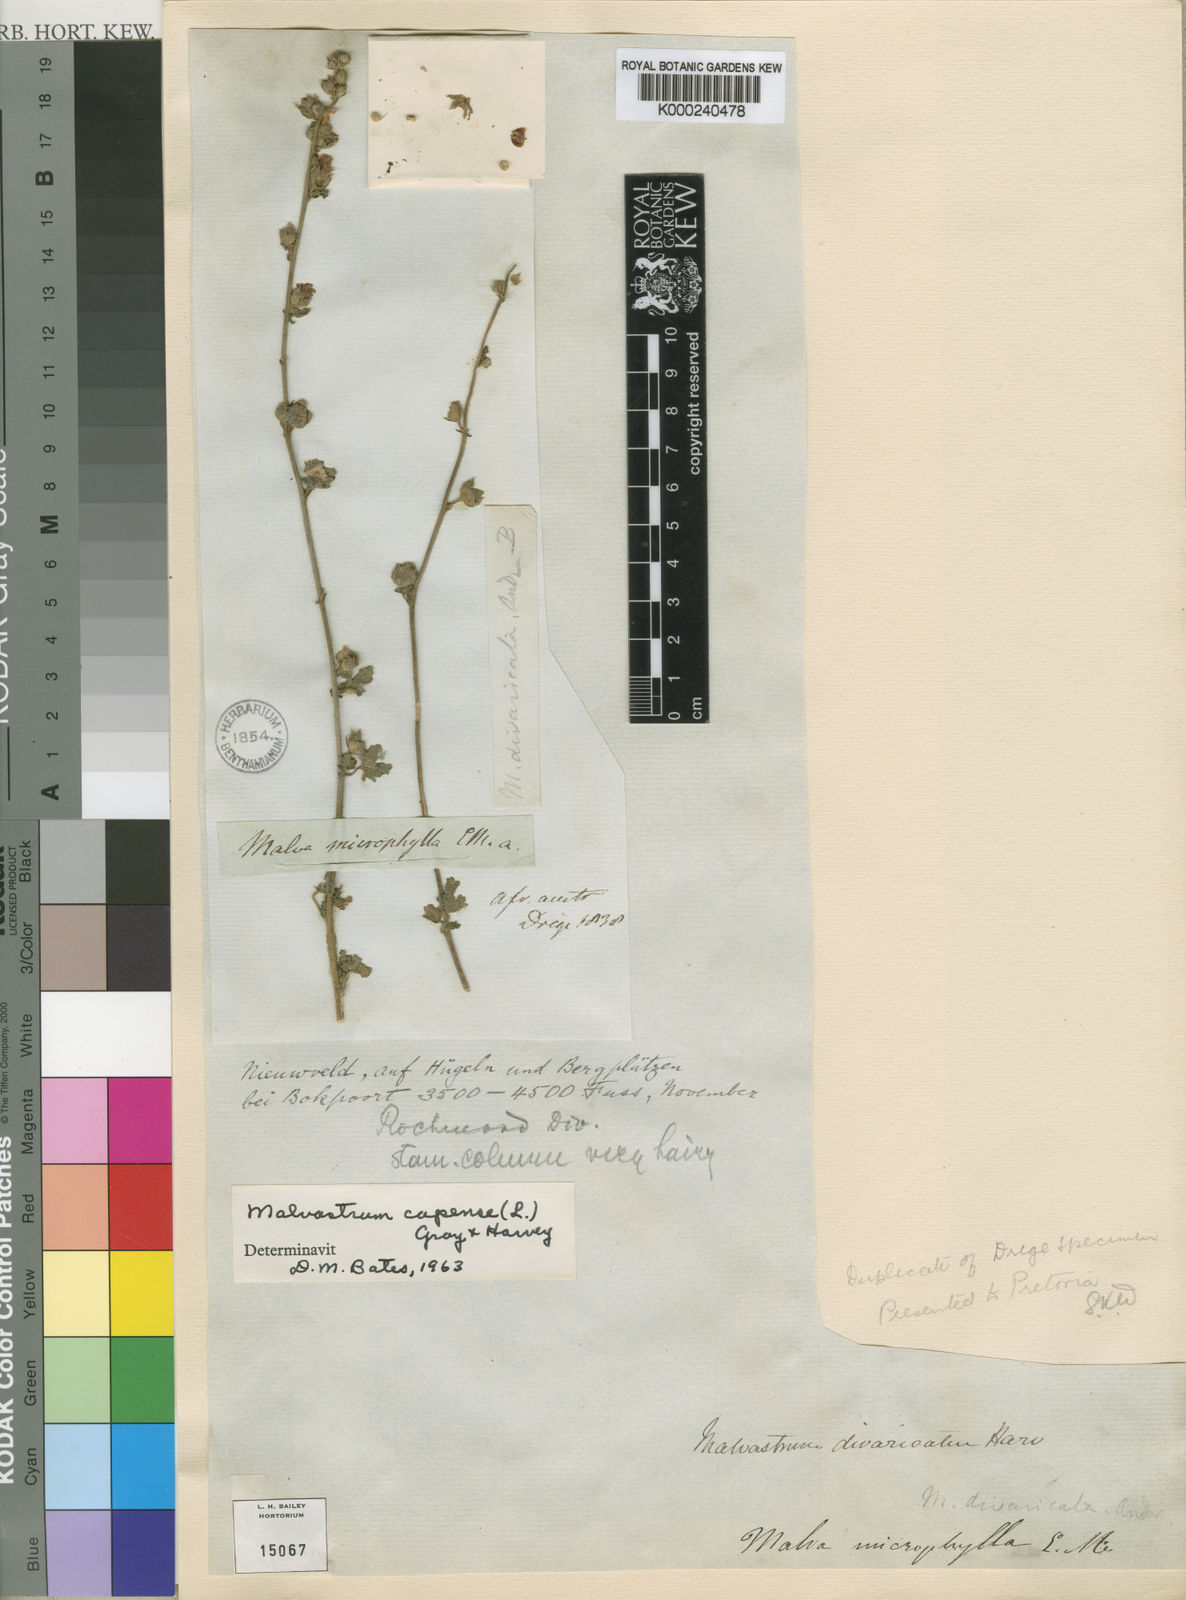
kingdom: Plantae
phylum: Tracheophyta
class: Magnoliopsida
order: Malvales
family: Malvaceae
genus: Anisodontea
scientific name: Anisodontea capensis
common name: Cape african-queen
